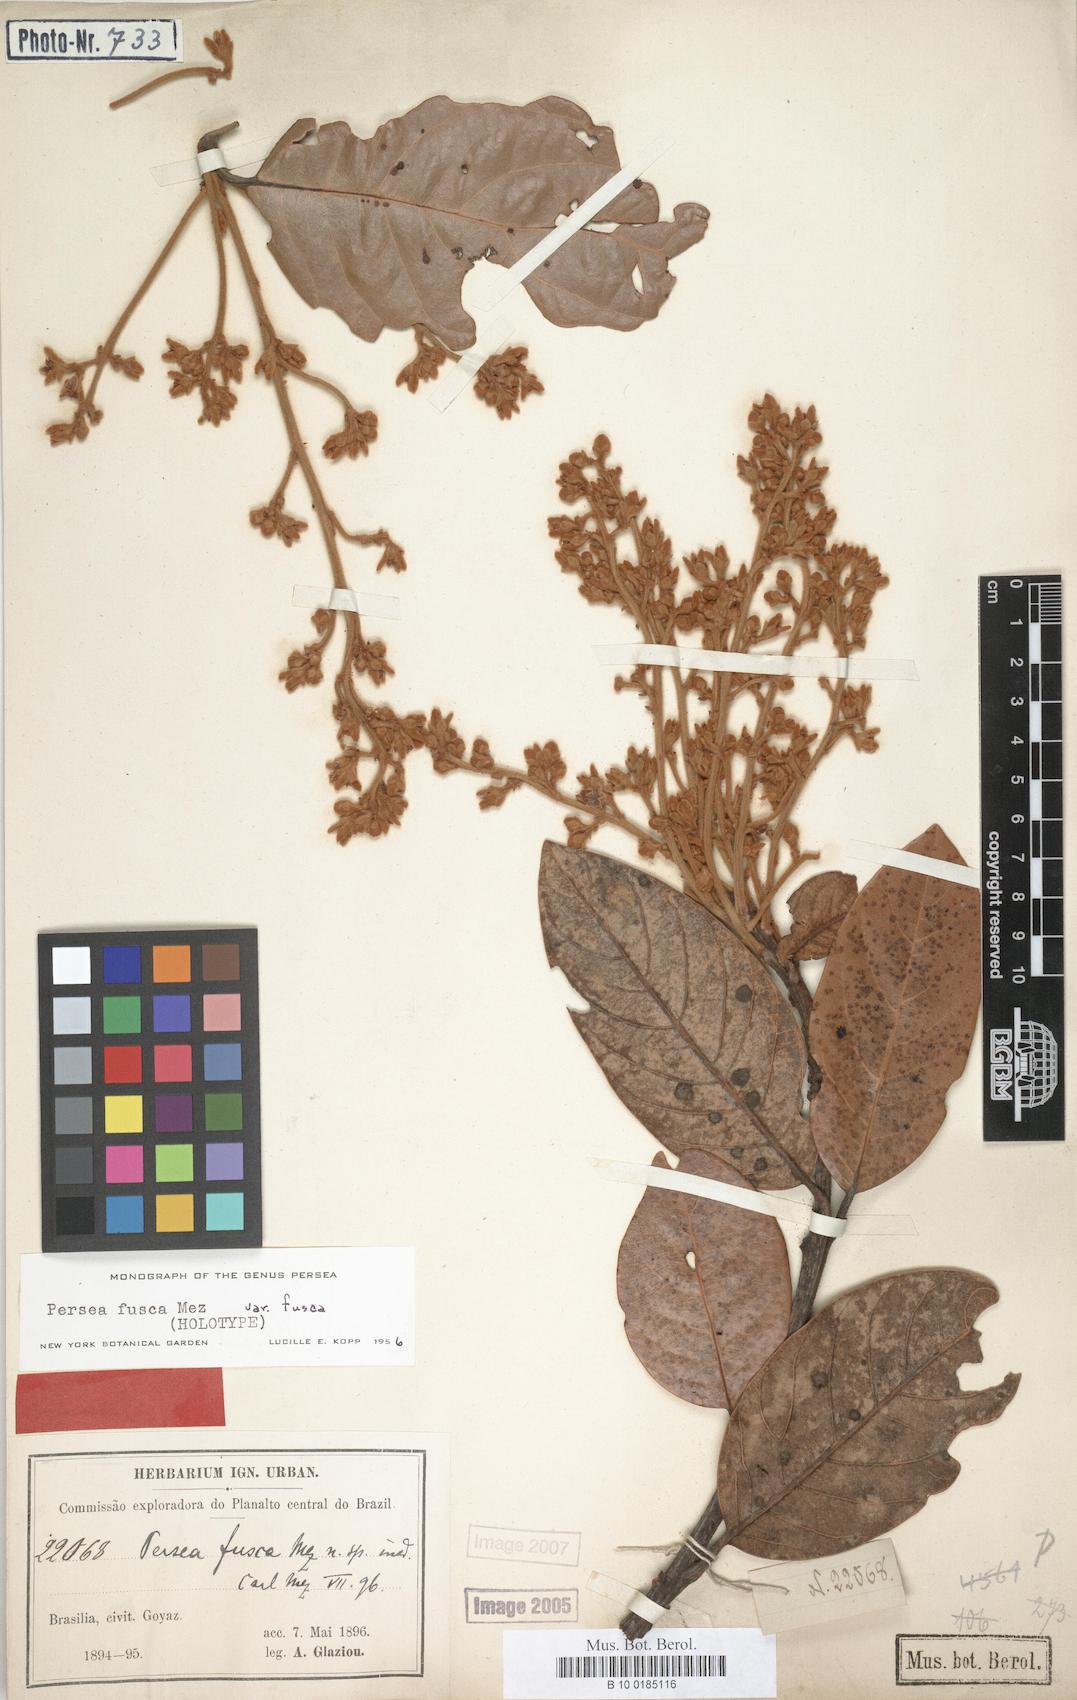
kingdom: Plantae
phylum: Tracheophyta
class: Magnoliopsida
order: Laurales
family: Lauraceae
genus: Persea
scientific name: Persea fusca
